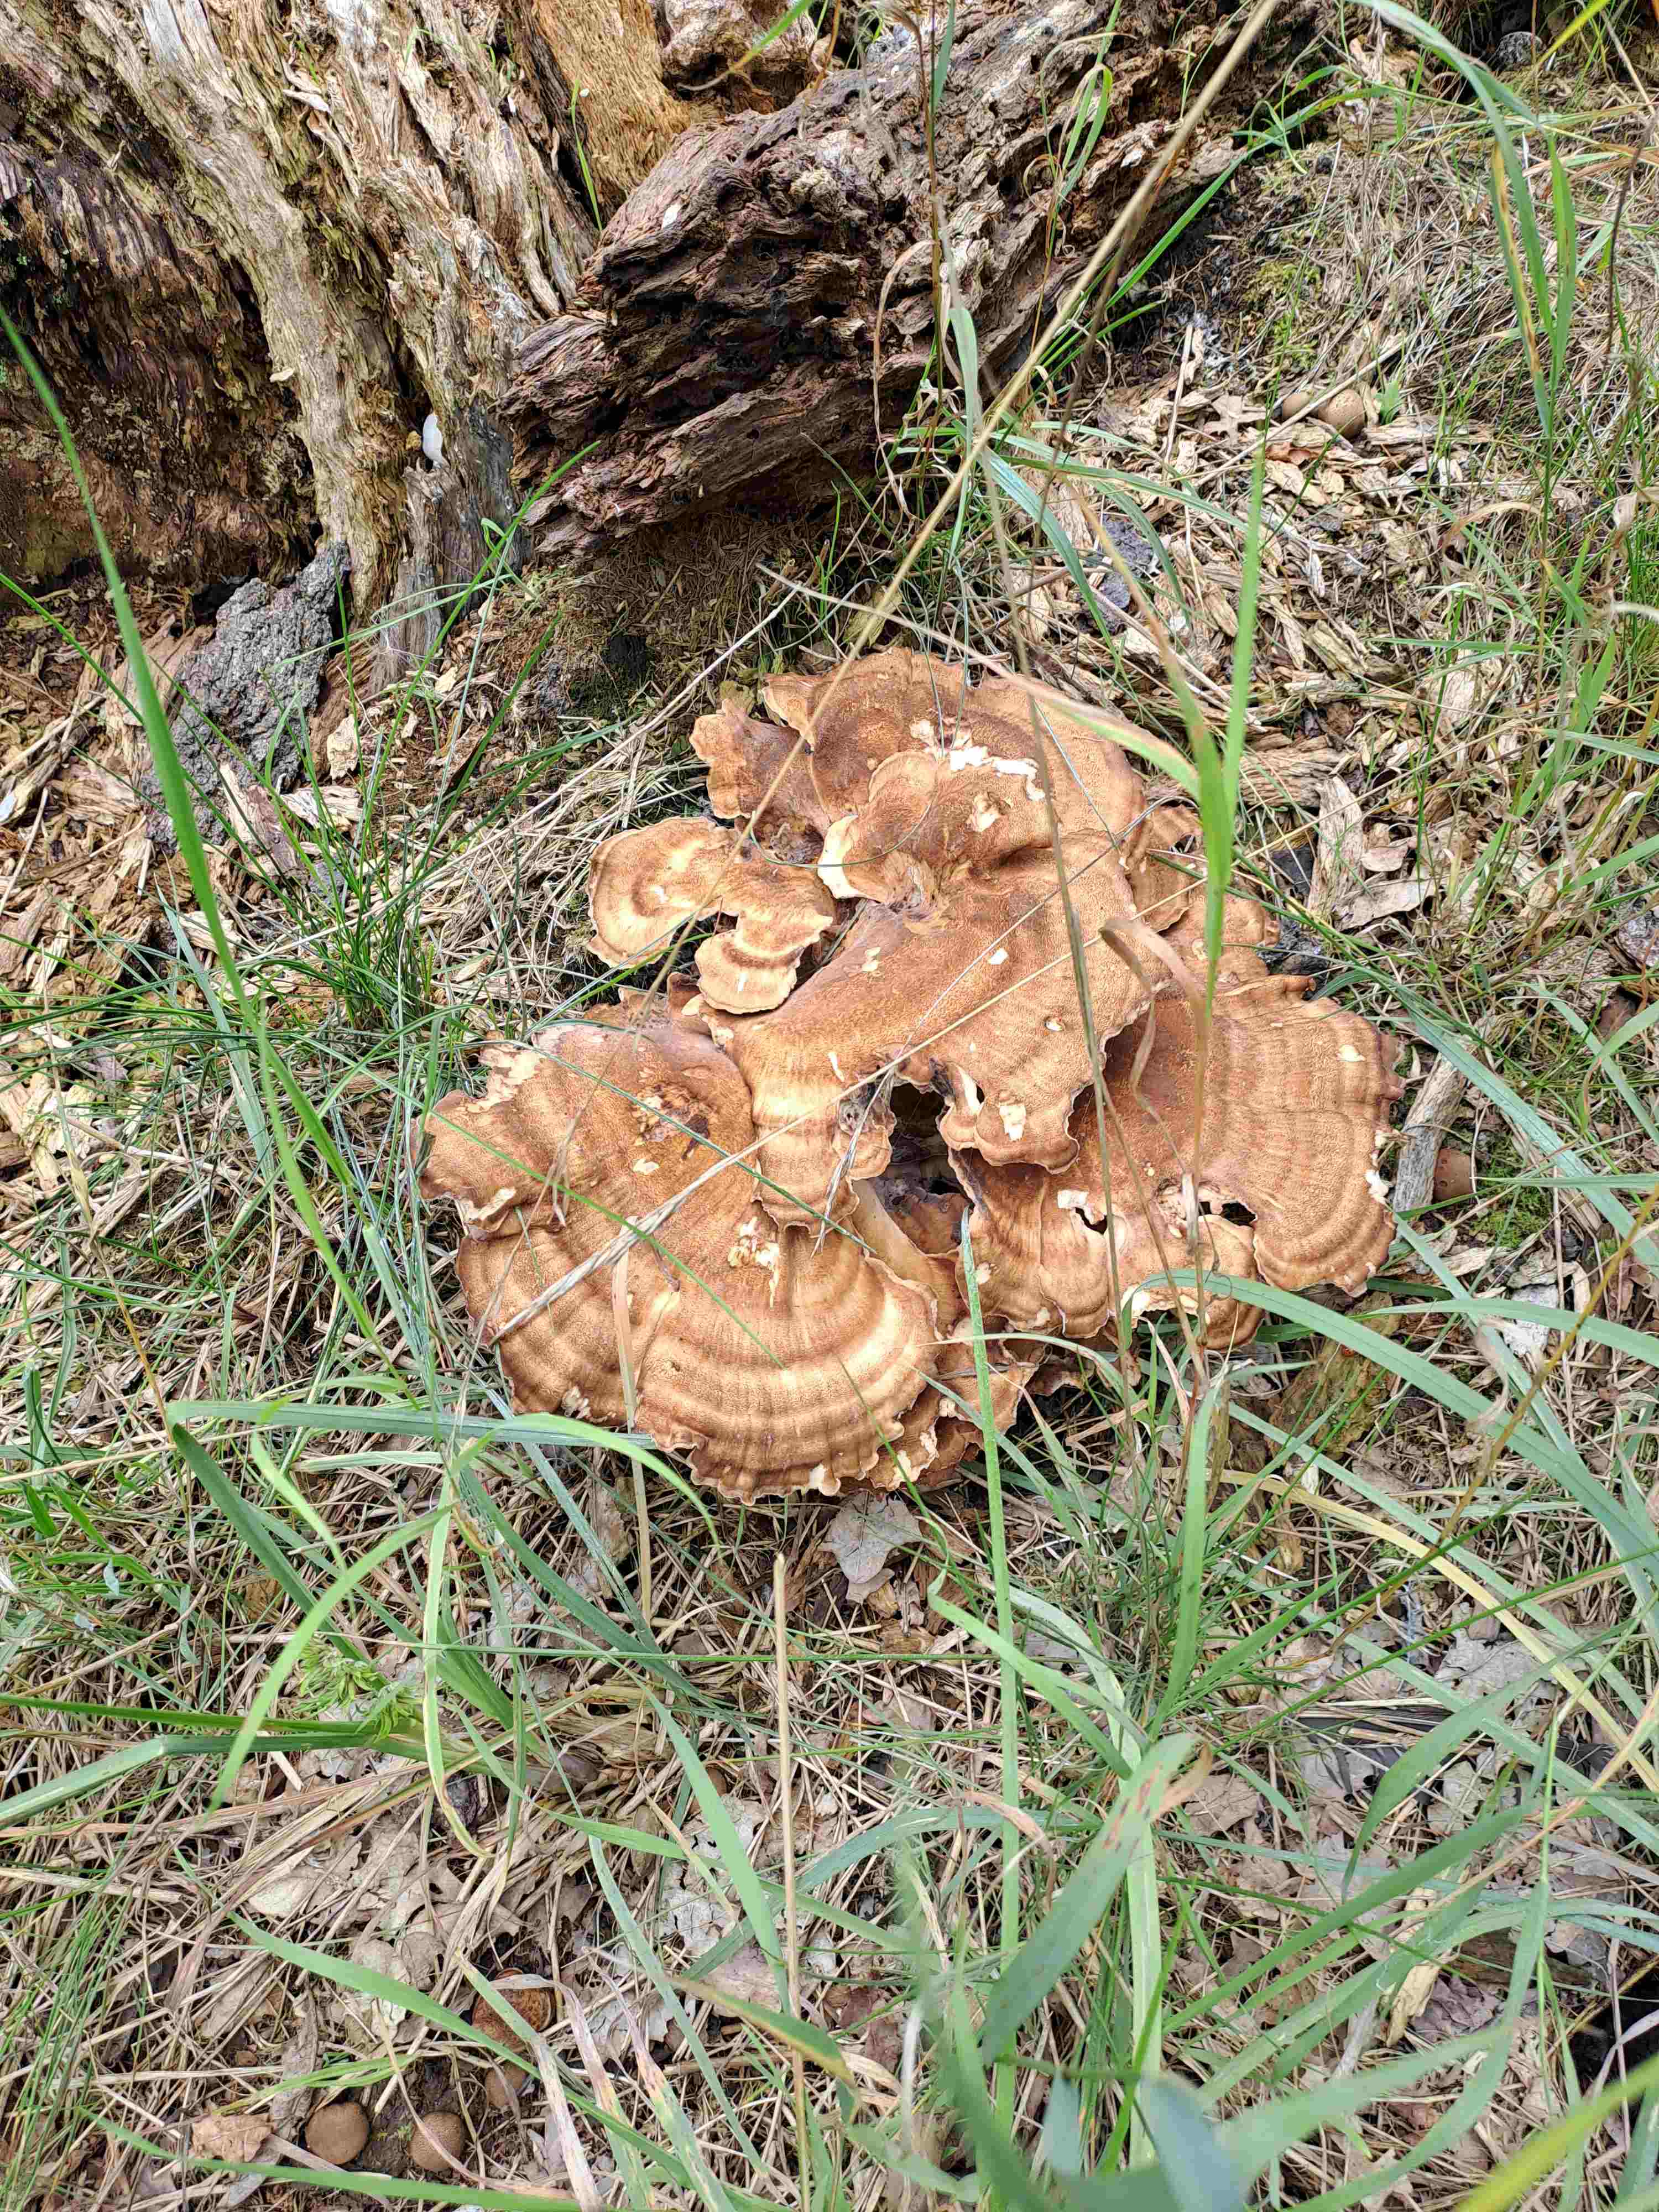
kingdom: Fungi
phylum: Basidiomycota
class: Agaricomycetes
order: Polyporales
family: Meripilaceae
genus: Meripilus
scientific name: Meripilus giganteus
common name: kæmpeporesvamp
